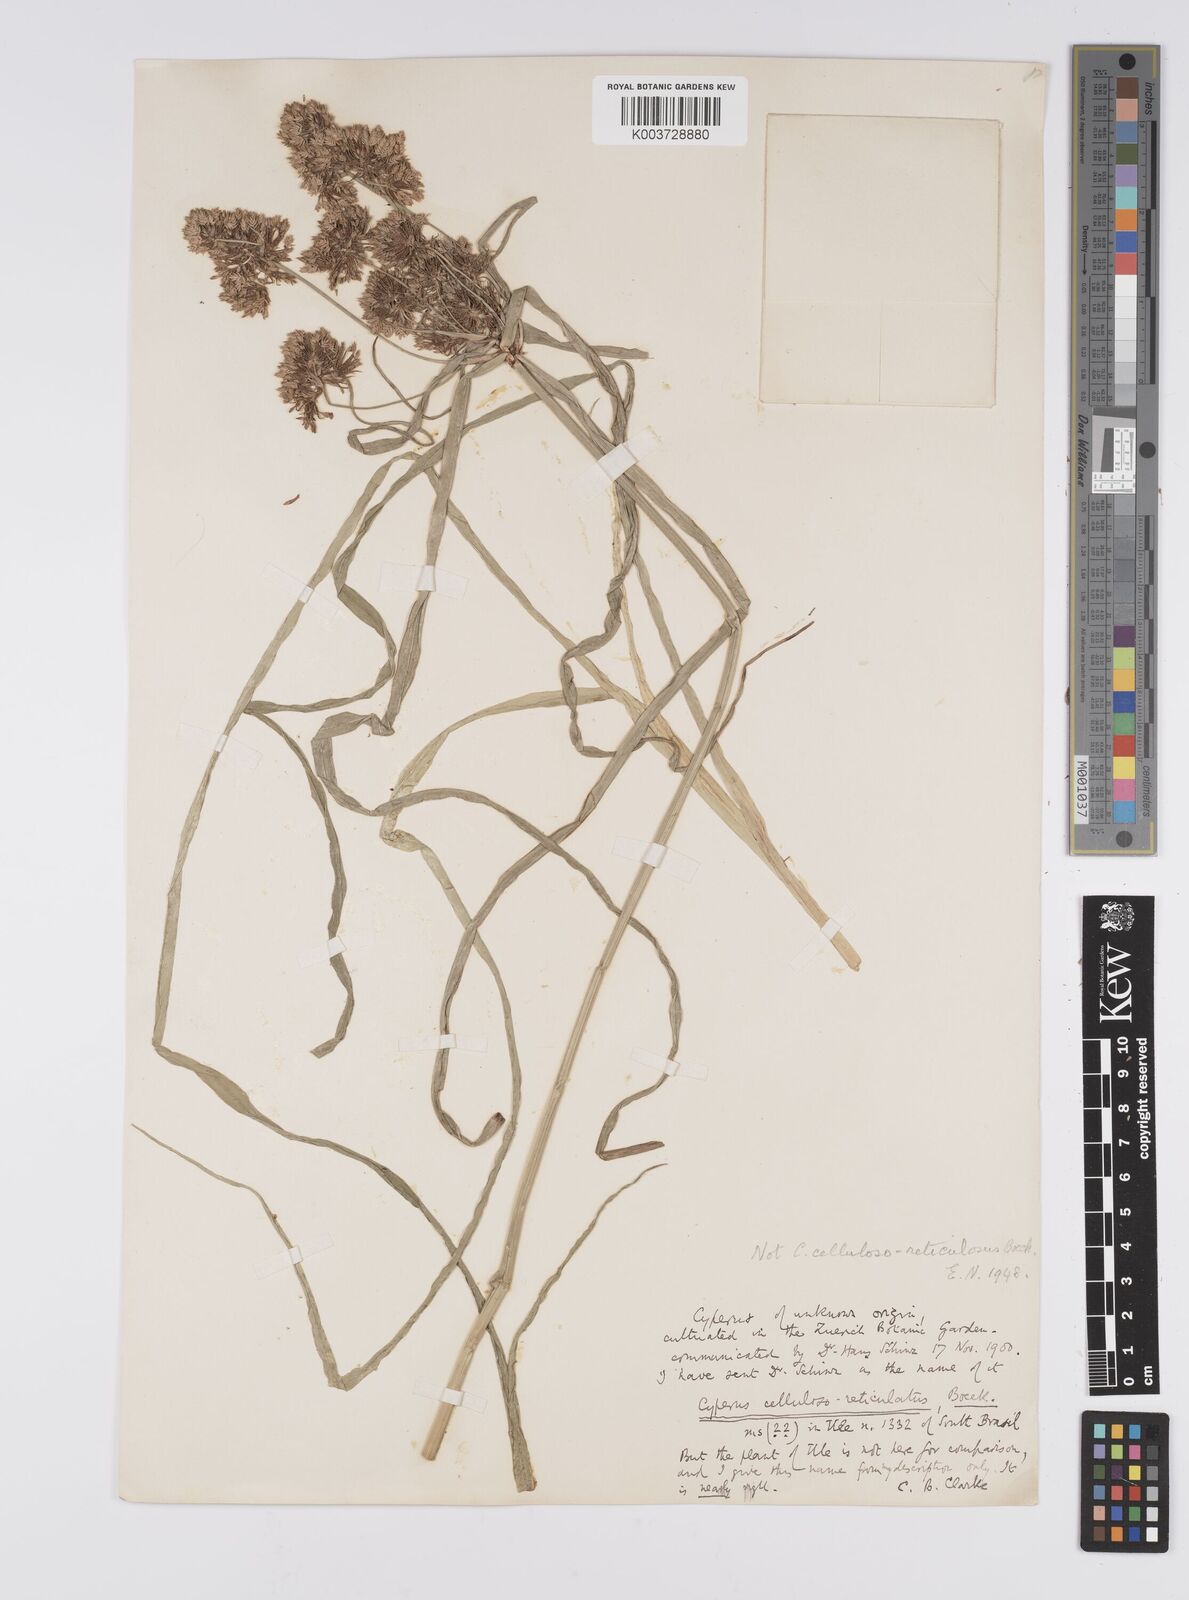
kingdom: Plantae
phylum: Tracheophyta
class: Liliopsida
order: Poales
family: Cyperaceae
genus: Cyperus
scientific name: Cyperus eragrostis
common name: Tall flatsedge
